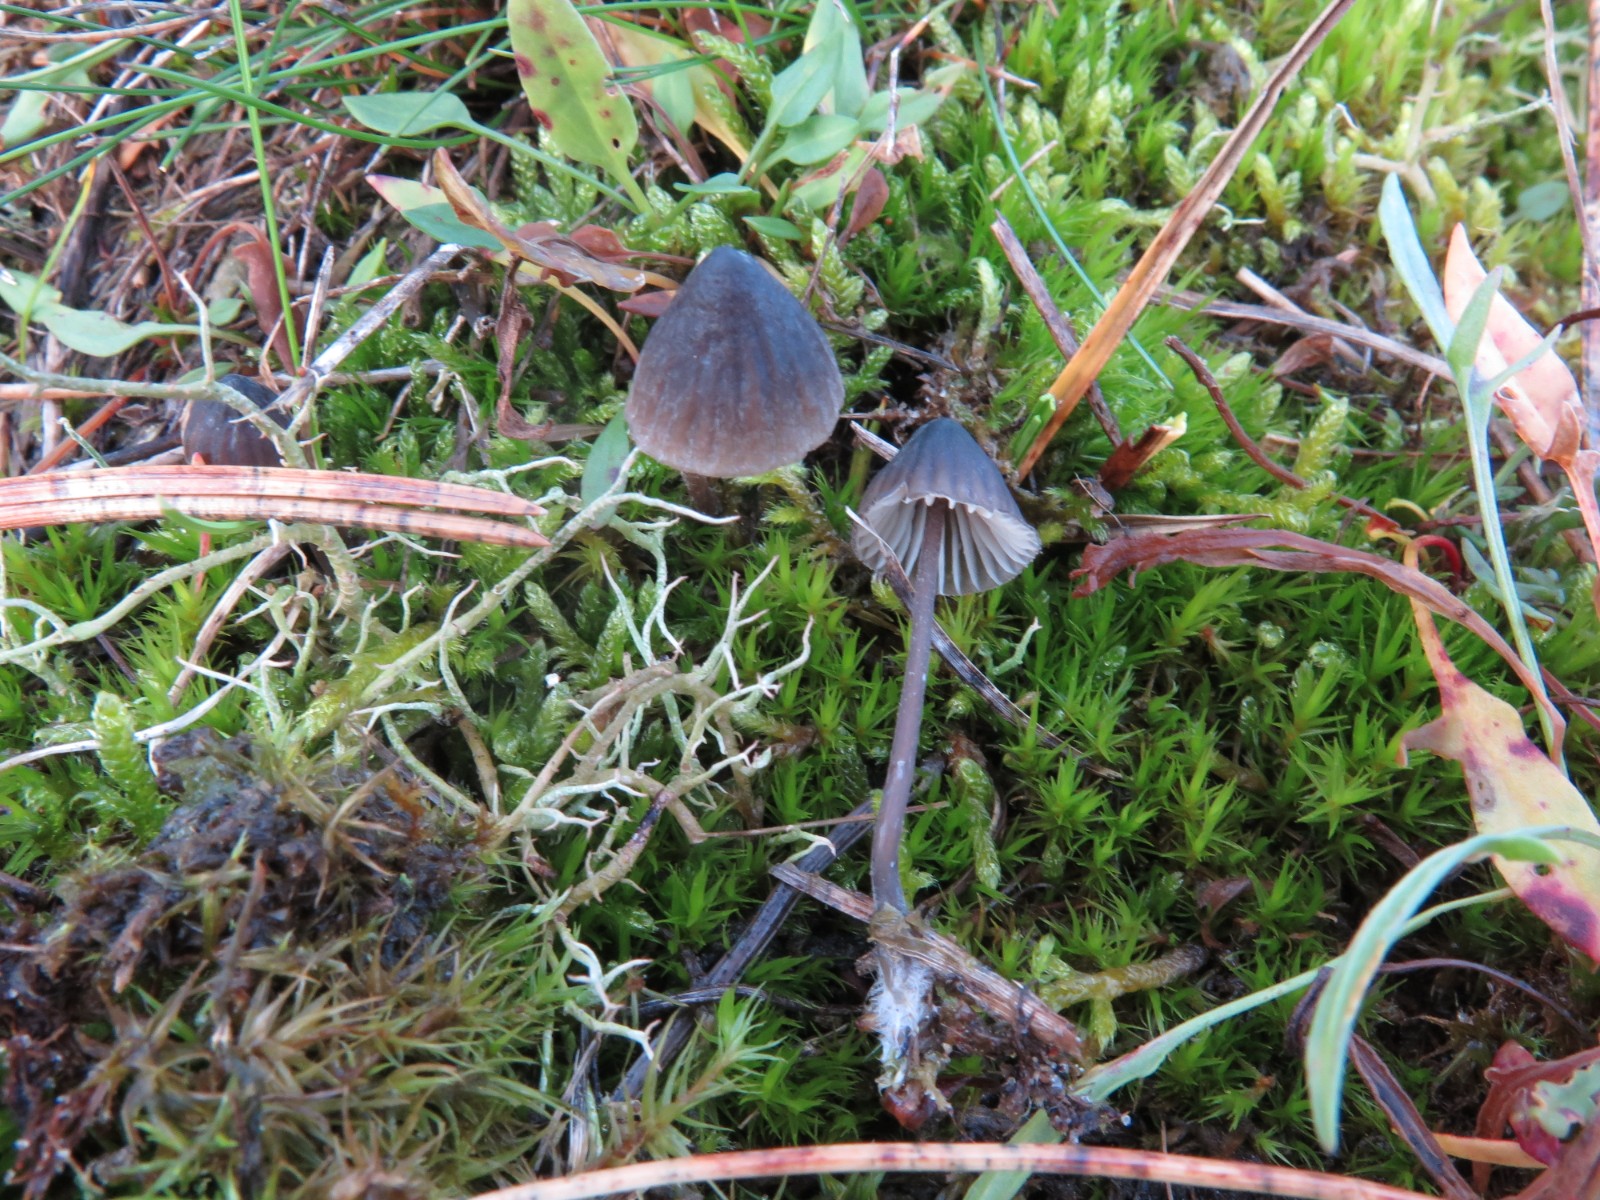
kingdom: Fungi
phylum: Basidiomycota
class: Agaricomycetes
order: Agaricales
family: Mycenaceae
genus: Mycena
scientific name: Mycena galopus
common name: hvidmælket huesvamp
